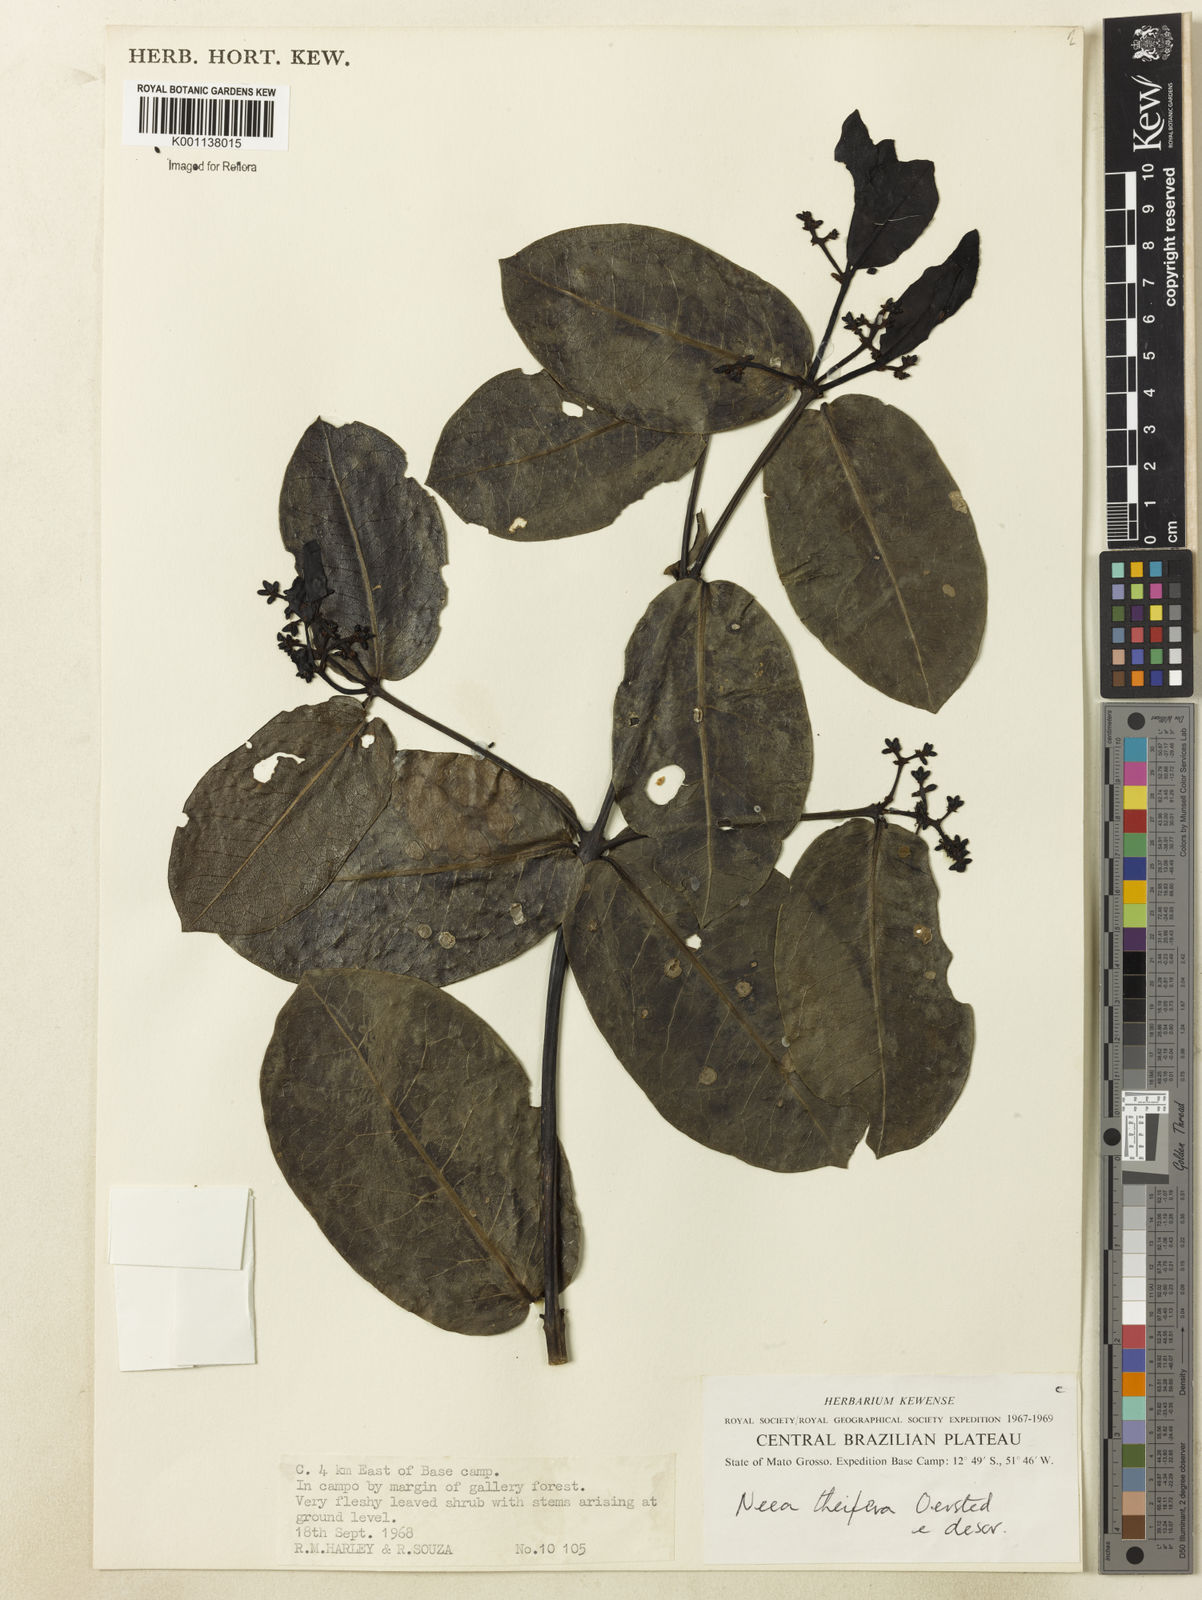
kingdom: Plantae
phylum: Tracheophyta
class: Magnoliopsida
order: Caryophyllales
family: Nyctaginaceae
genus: Neea
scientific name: Neea theifera
